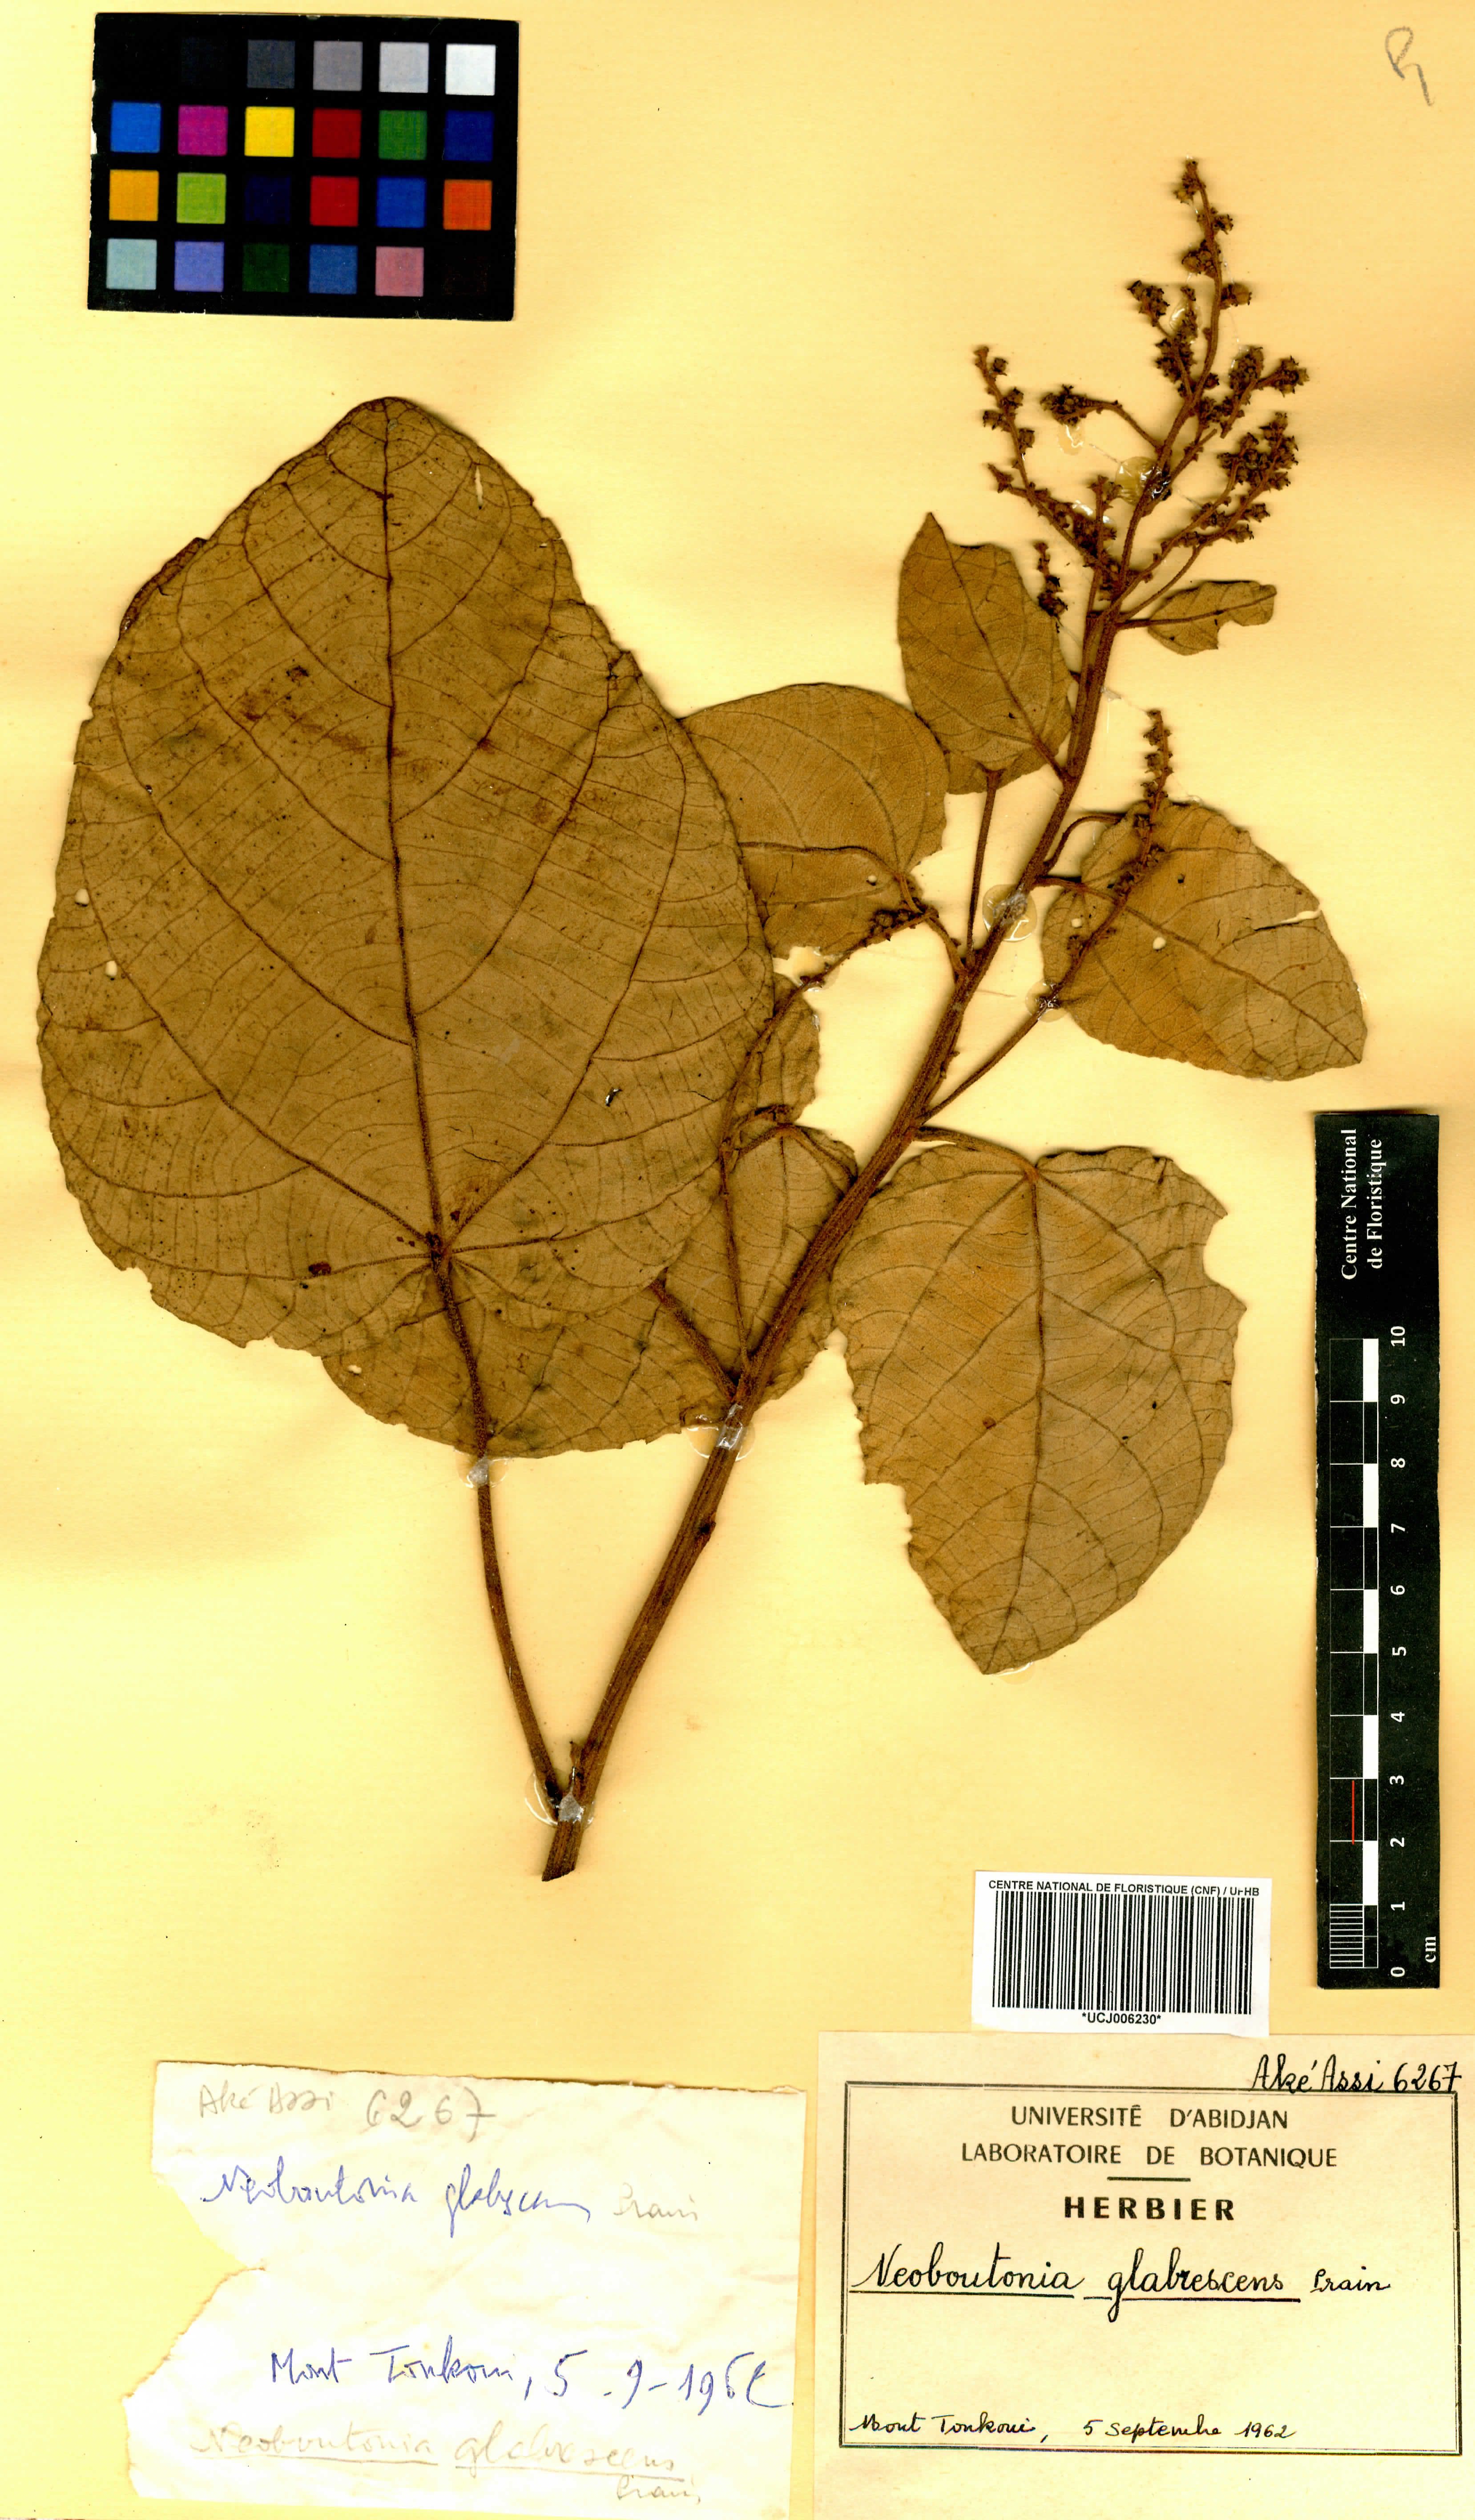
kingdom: Plantae
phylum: Tracheophyta
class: Magnoliopsida
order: Malpighiales
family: Euphorbiaceae
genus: Neoboutonia
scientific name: Neoboutonia mannii
